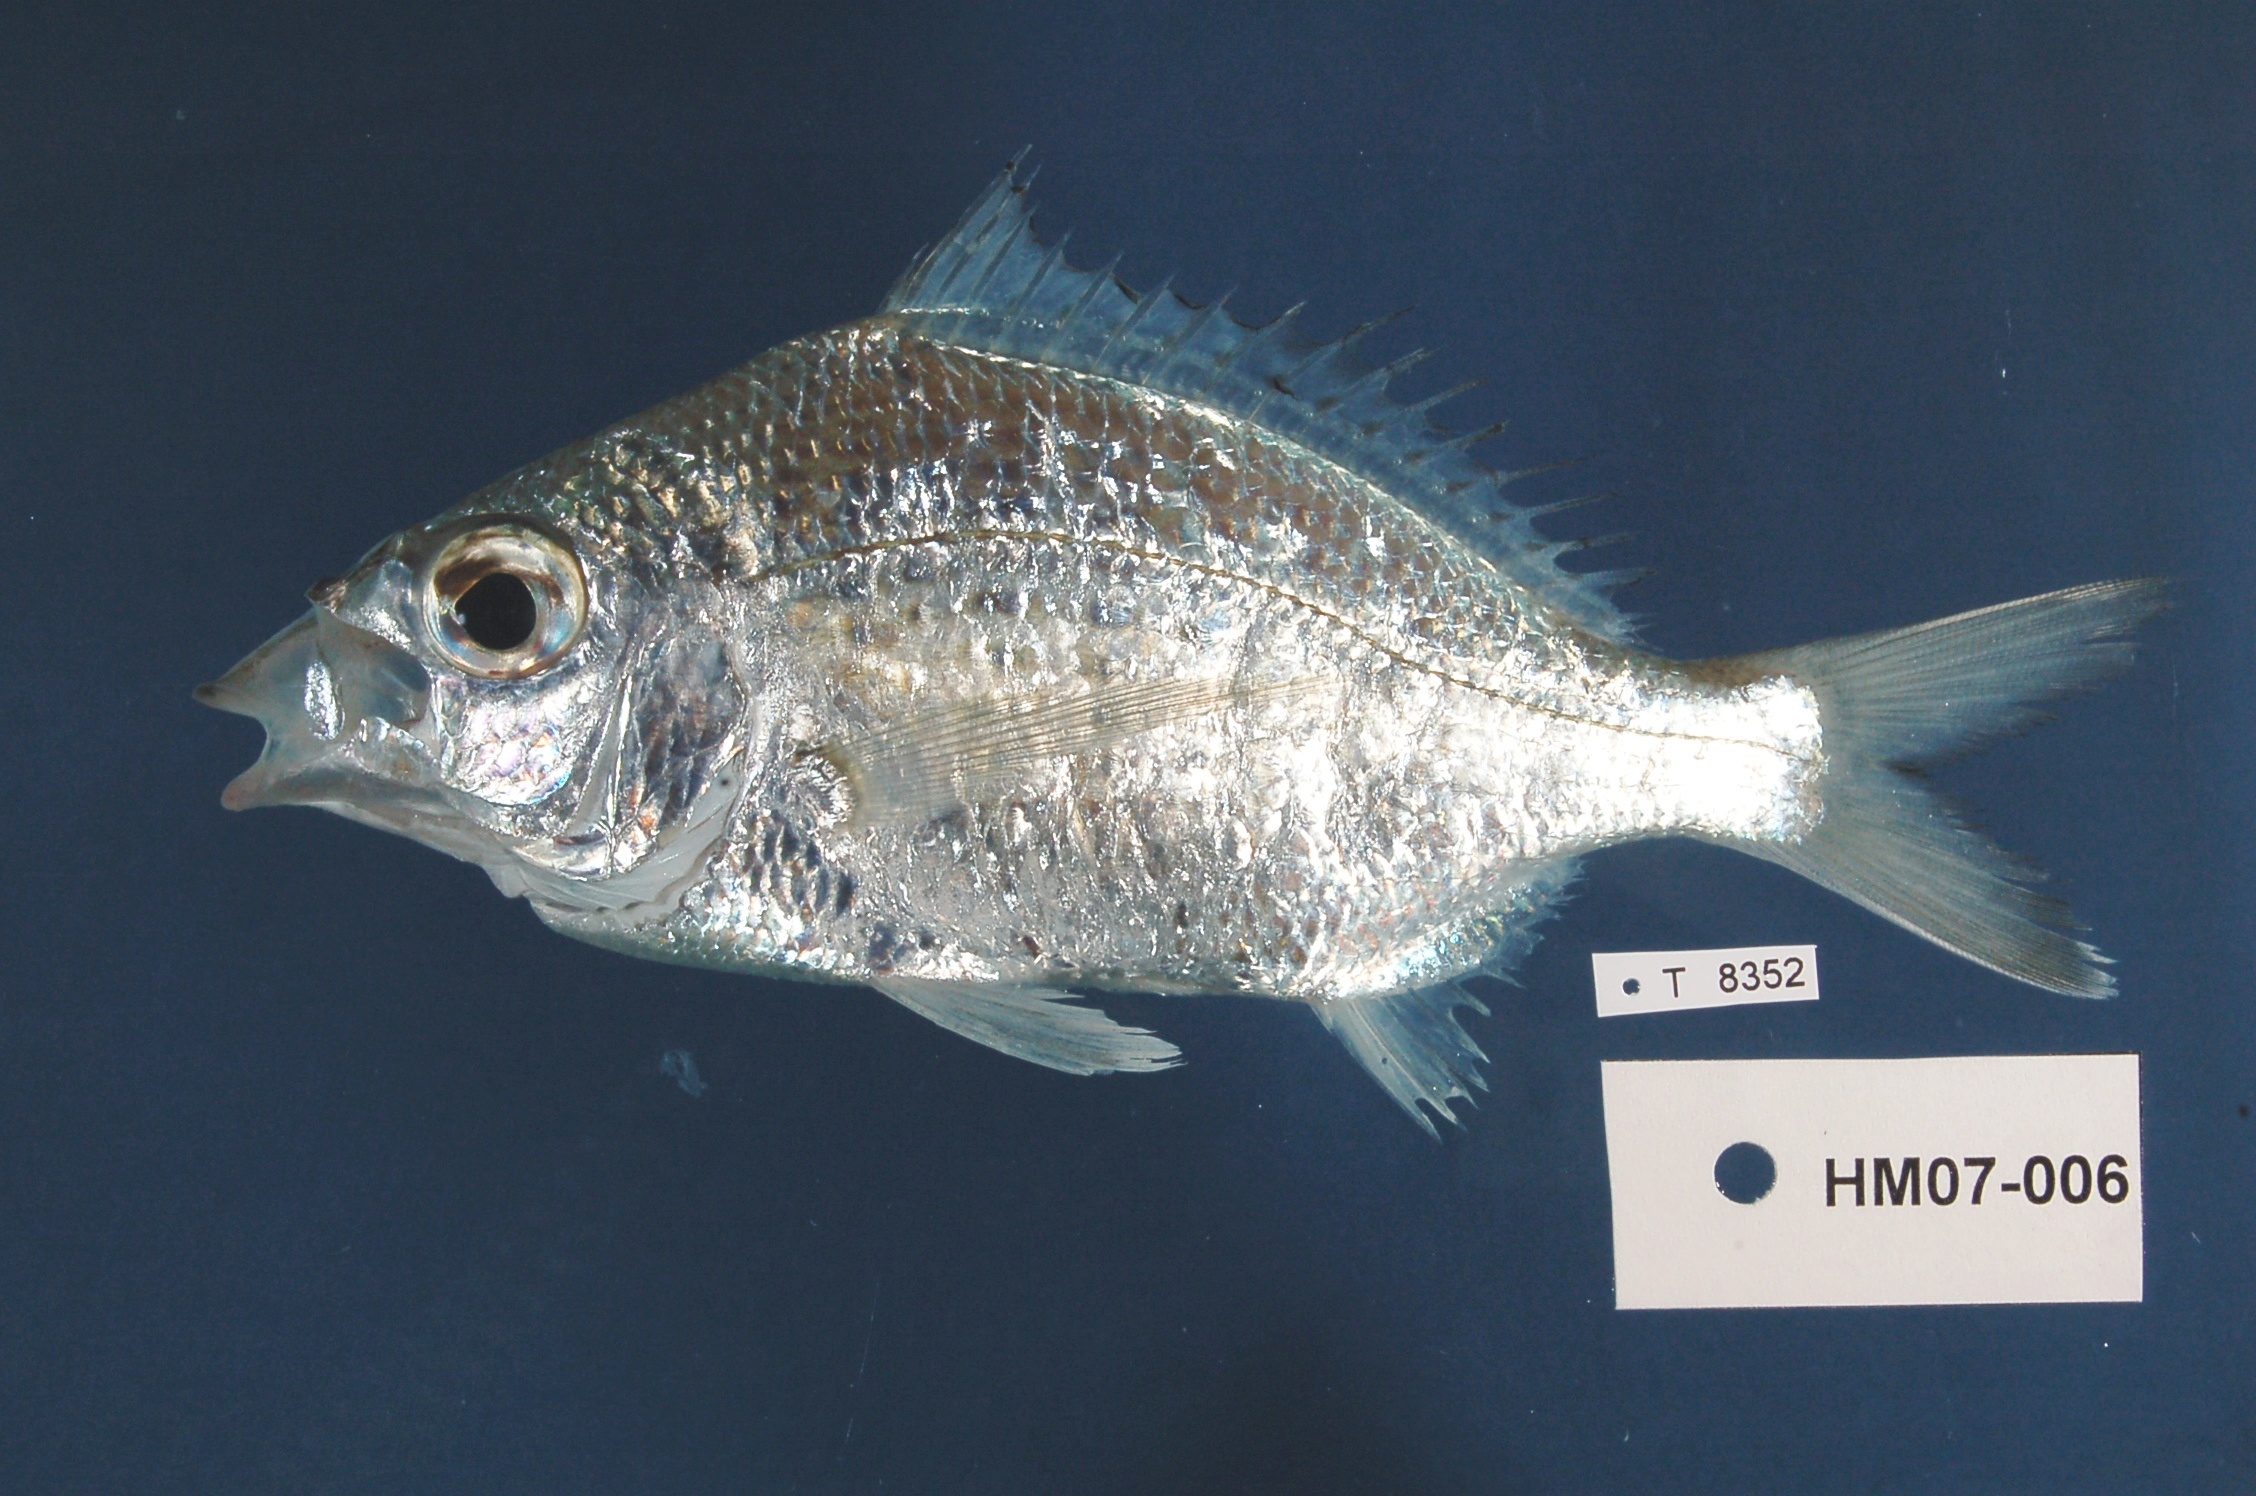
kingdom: Animalia
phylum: Chordata
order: Perciformes
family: Gerreidae
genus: Gerres
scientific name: Gerres mozambiquensis
